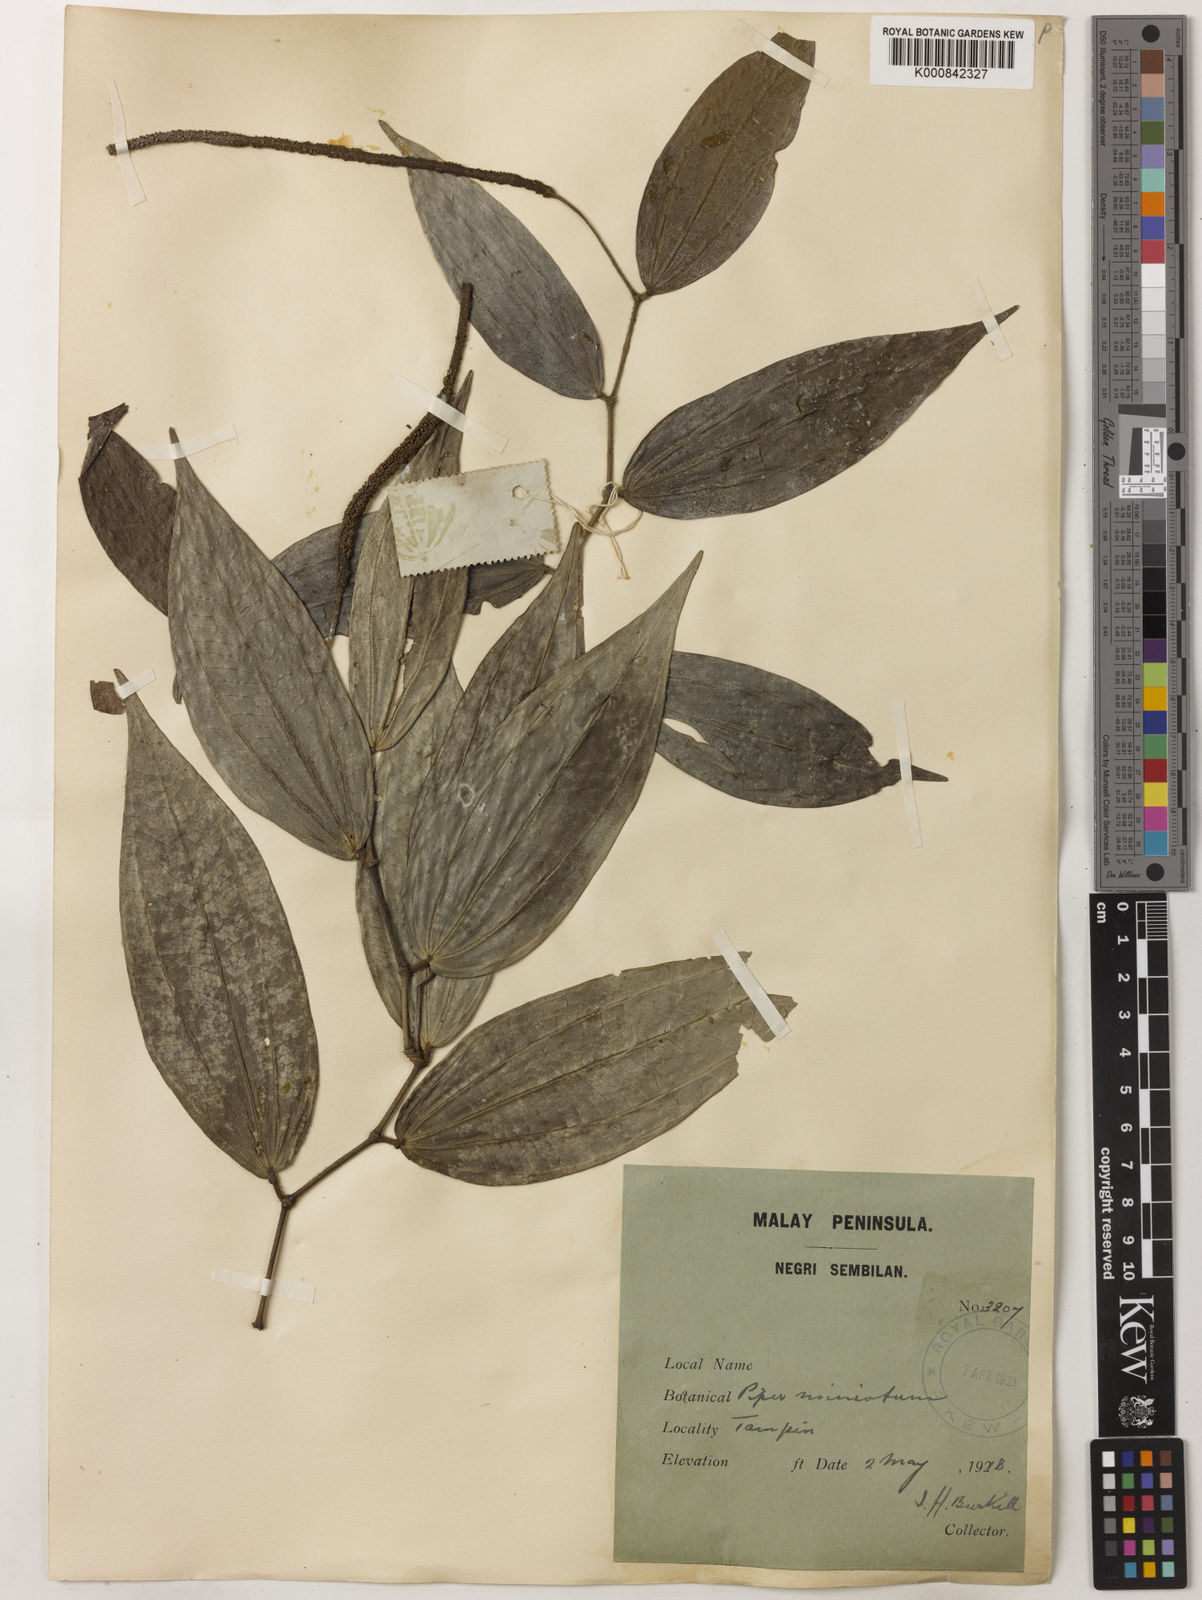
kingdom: Plantae
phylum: Tracheophyta
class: Magnoliopsida
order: Piperales
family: Piperaceae
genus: Piper
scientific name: Piper macropiper
